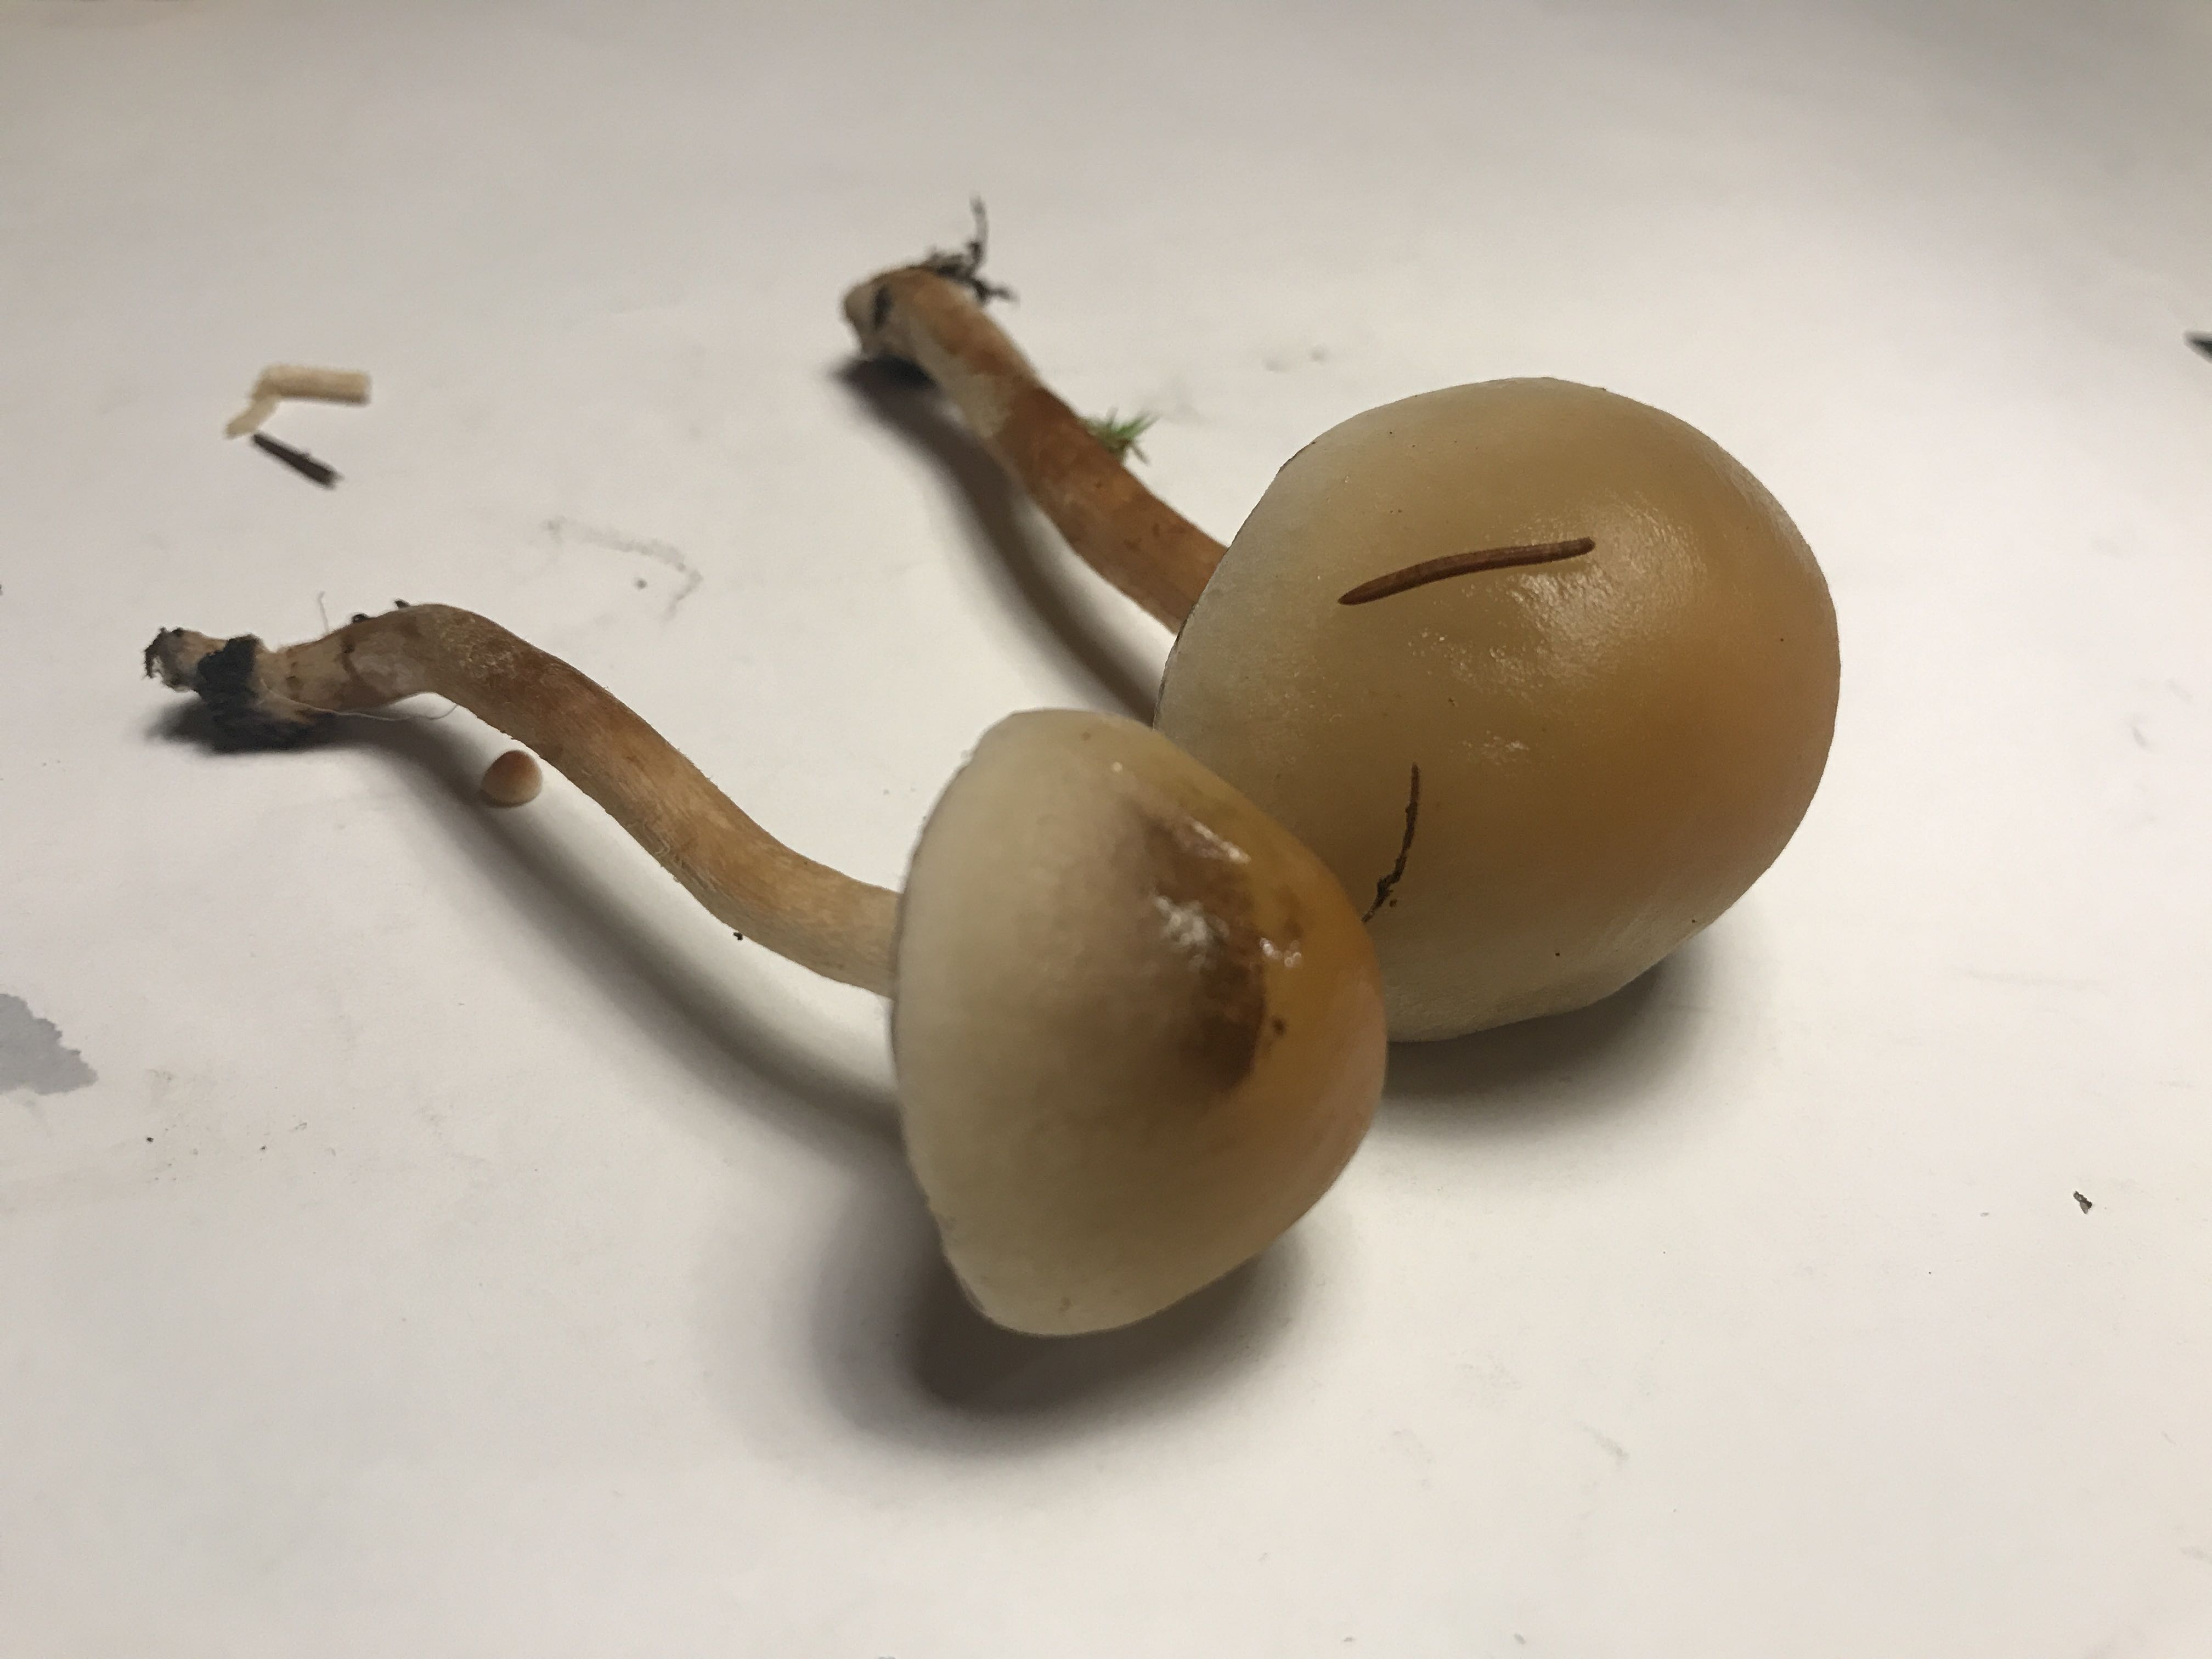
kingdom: Fungi
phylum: Basidiomycota
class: Agaricomycetes
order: Agaricales
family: Strophariaceae
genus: Hypholoma
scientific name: Hypholoma
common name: svovlhat
